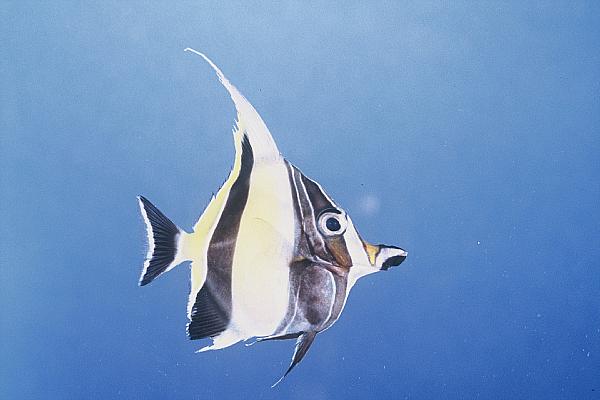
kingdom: Animalia
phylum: Chordata
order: Perciformes
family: Zanclidae
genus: Zanclus
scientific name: Zanclus cornutus
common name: Moorish idol
